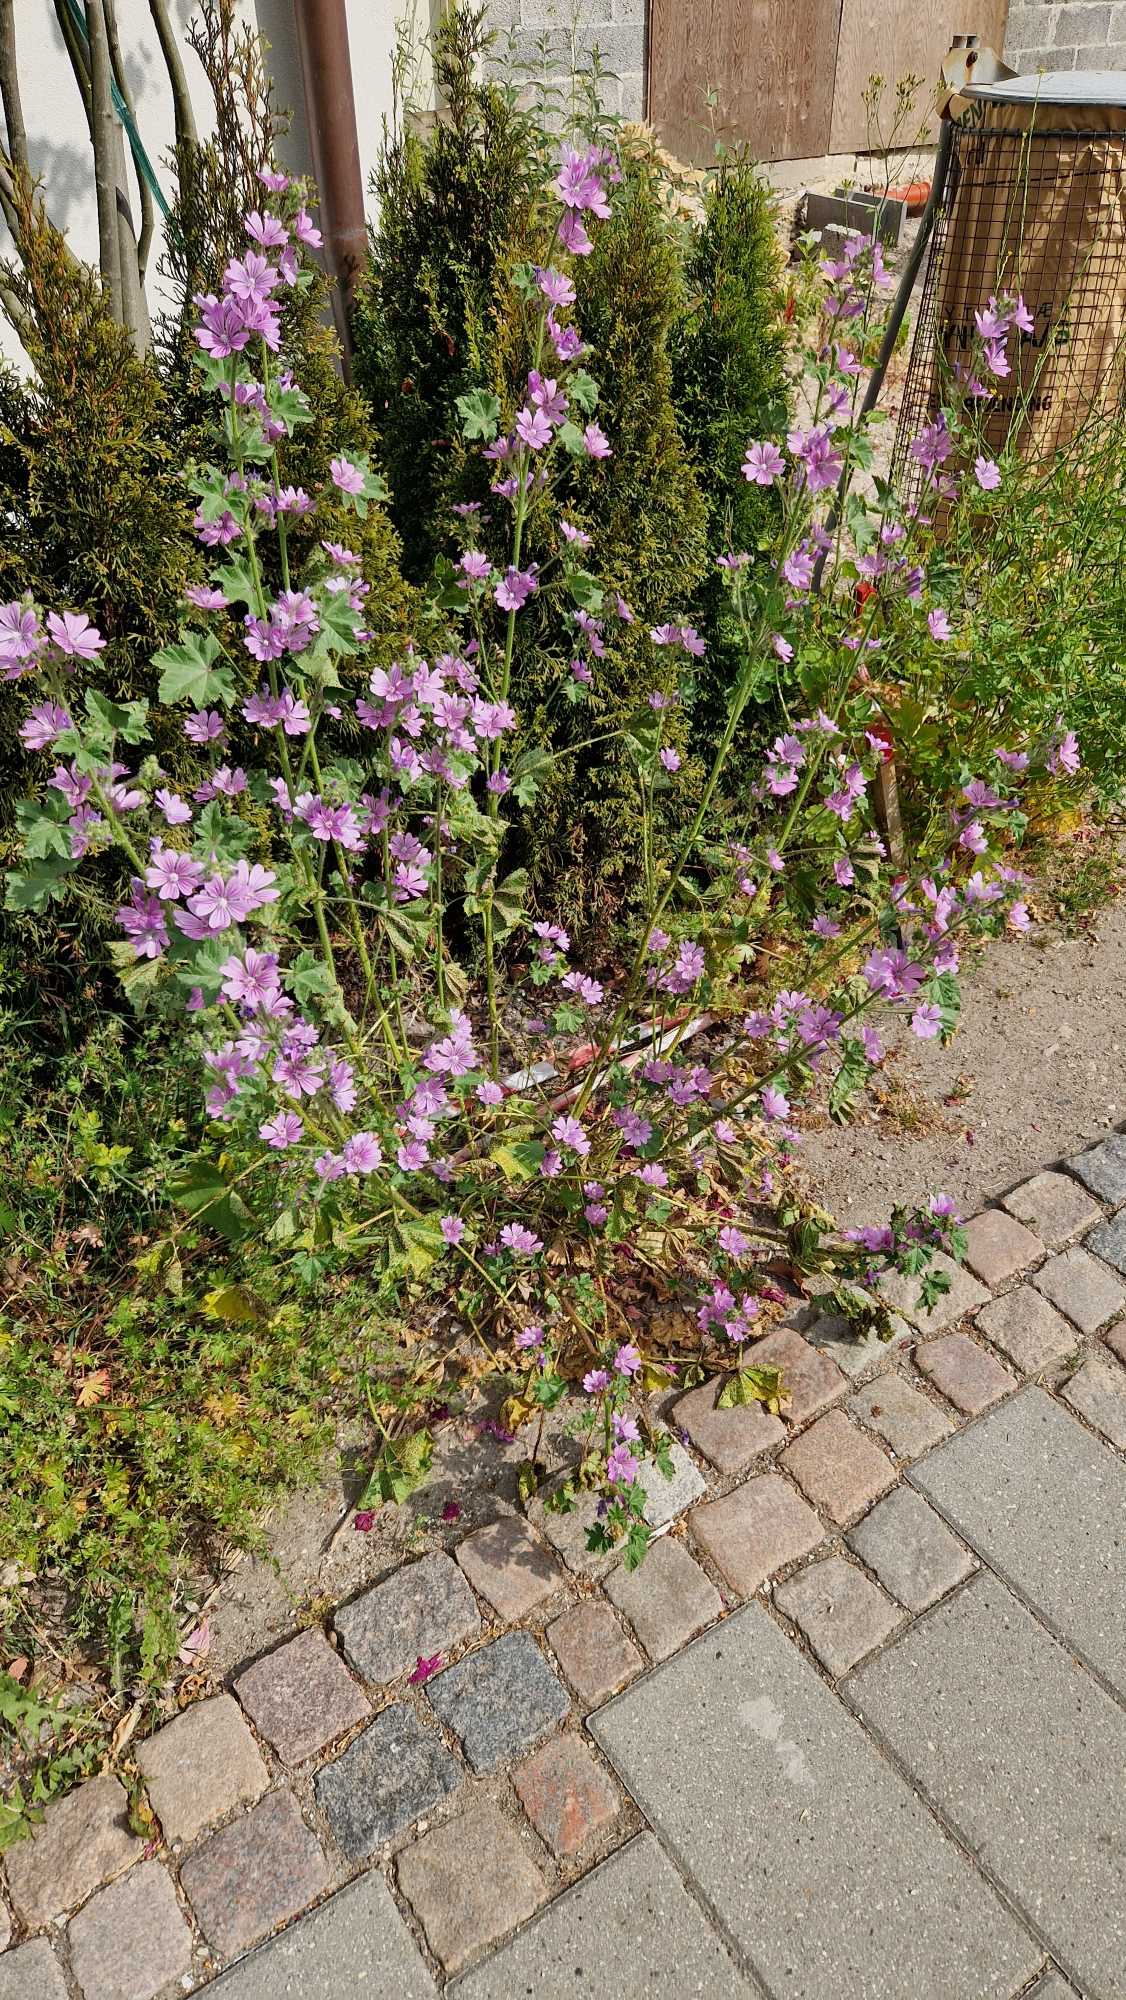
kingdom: Plantae
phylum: Tracheophyta
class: Magnoliopsida
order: Malvales
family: Malvaceae
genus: Malva
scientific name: Malva sylvestris
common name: Almindelig katost
